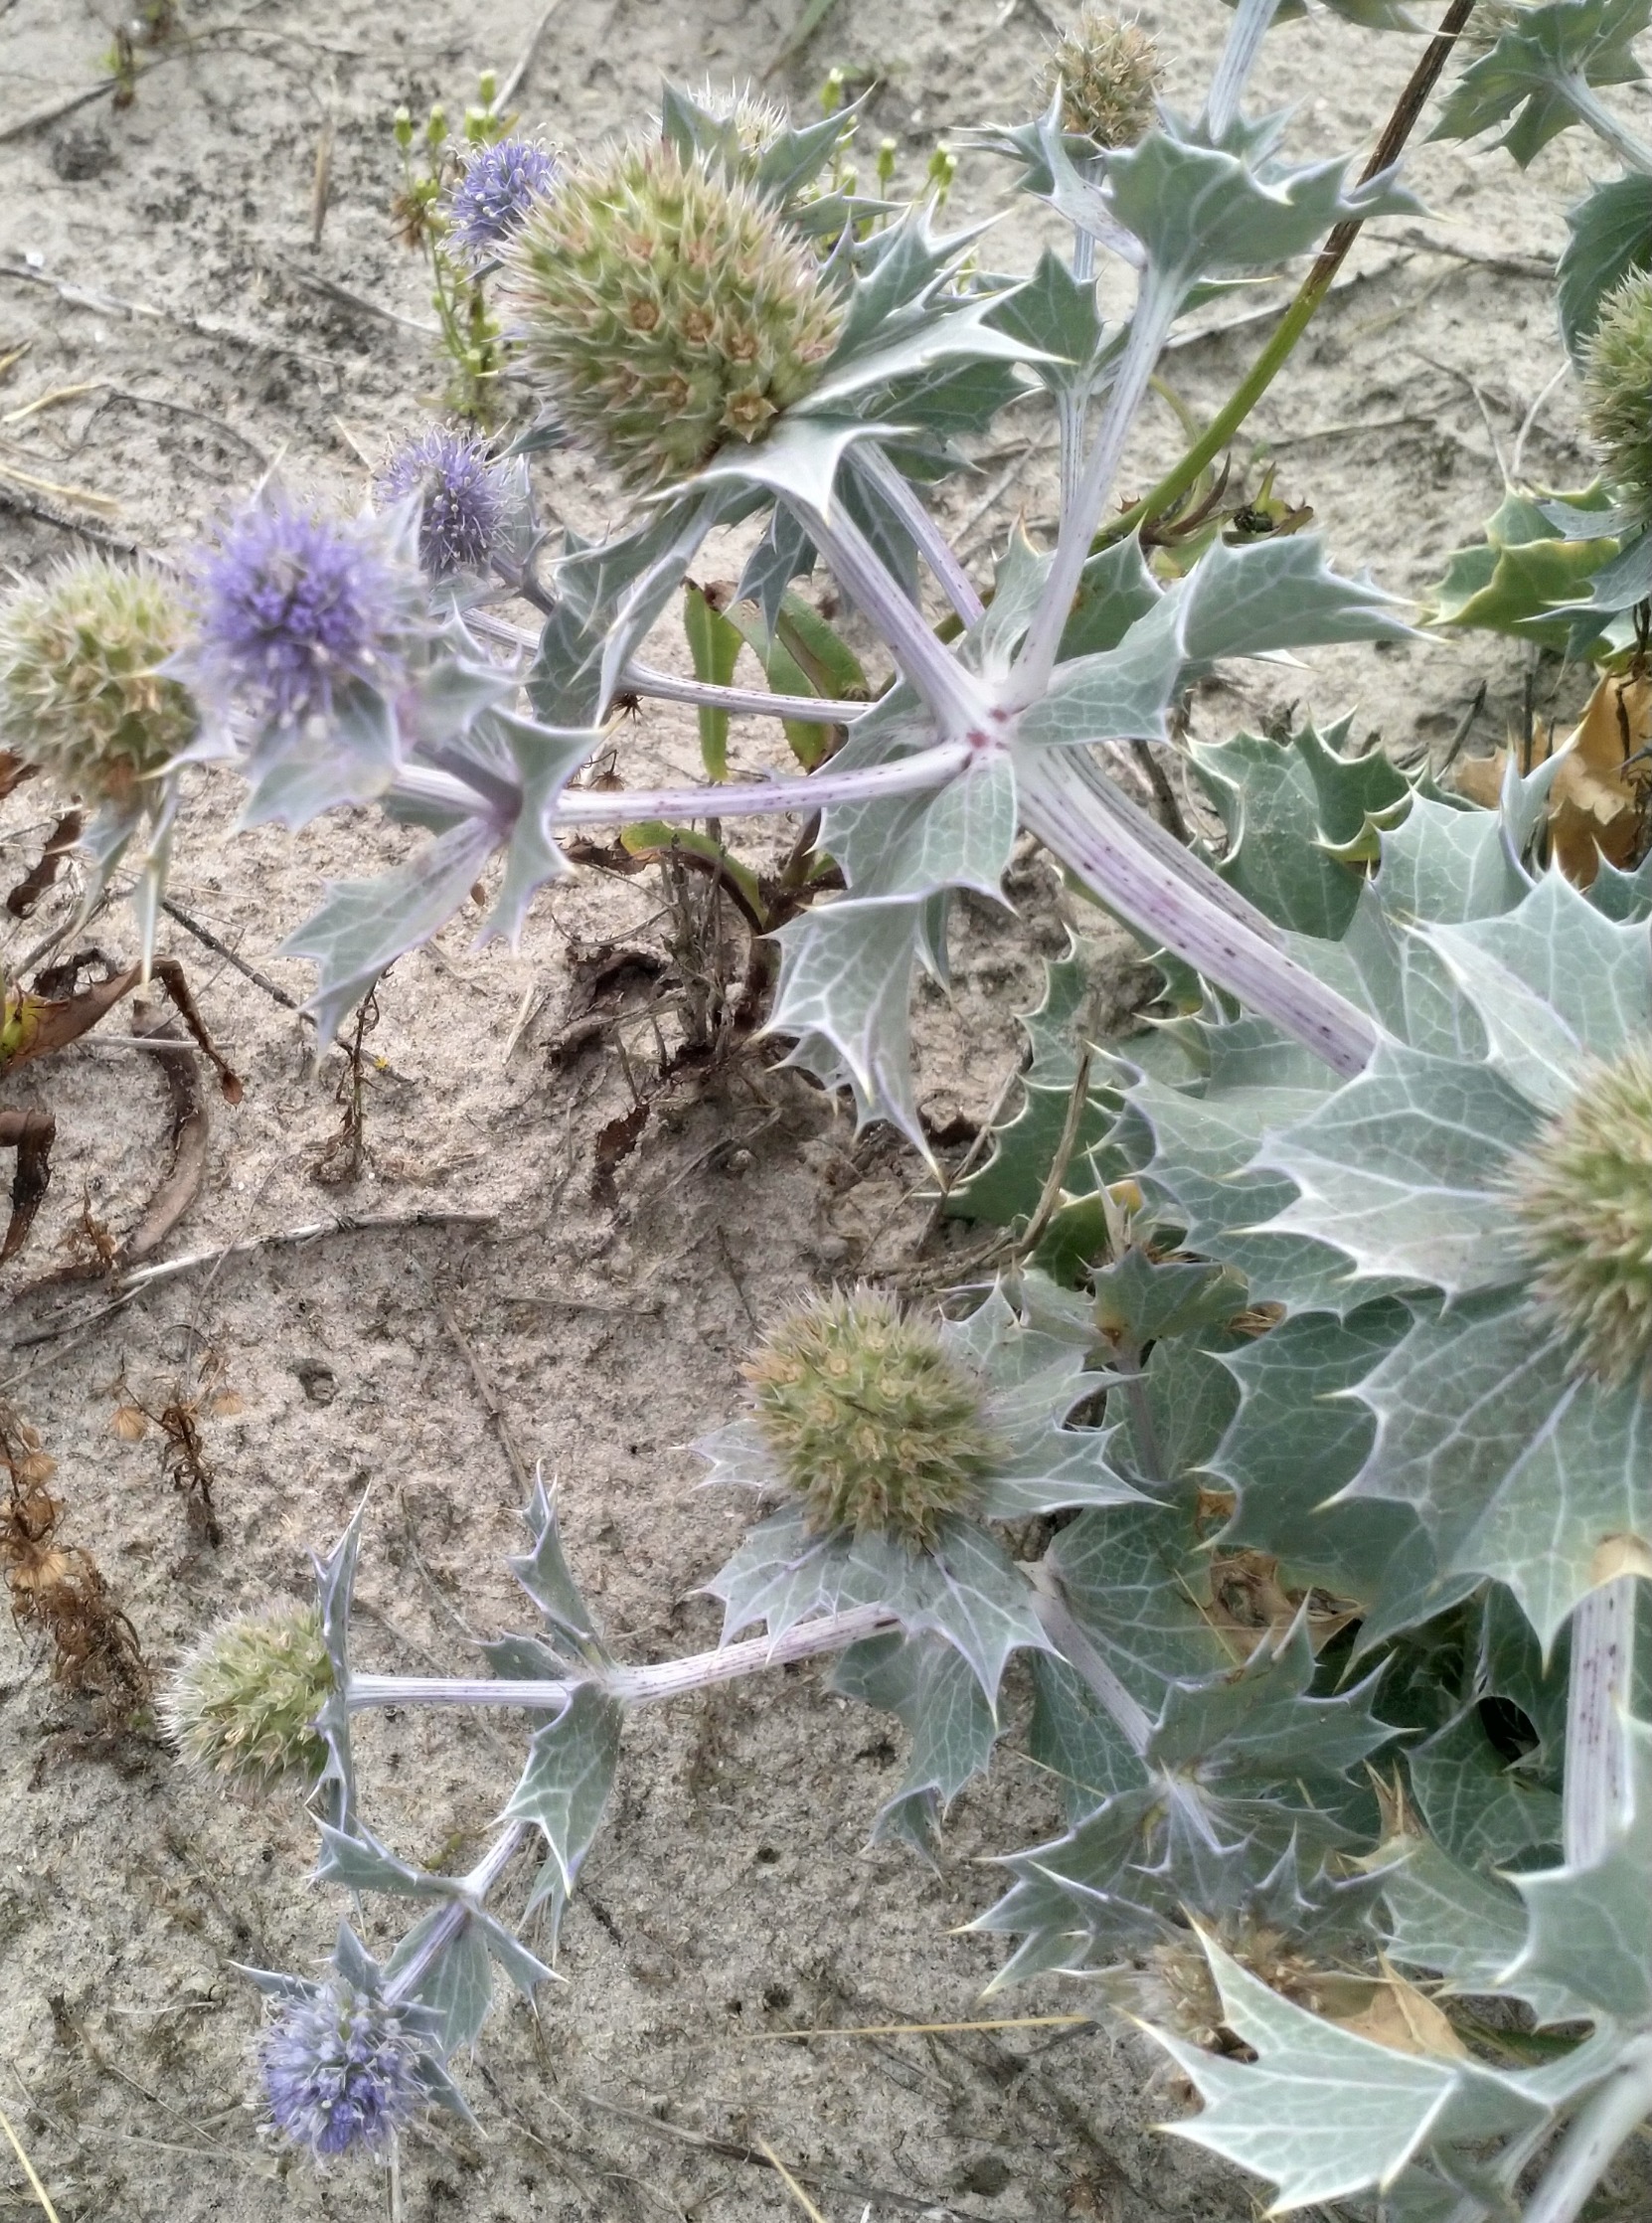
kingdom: Plantae
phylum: Tracheophyta
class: Magnoliopsida
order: Apiales
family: Apiaceae
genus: Eryngium
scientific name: Eryngium maritimum
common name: Strand-mandstro
